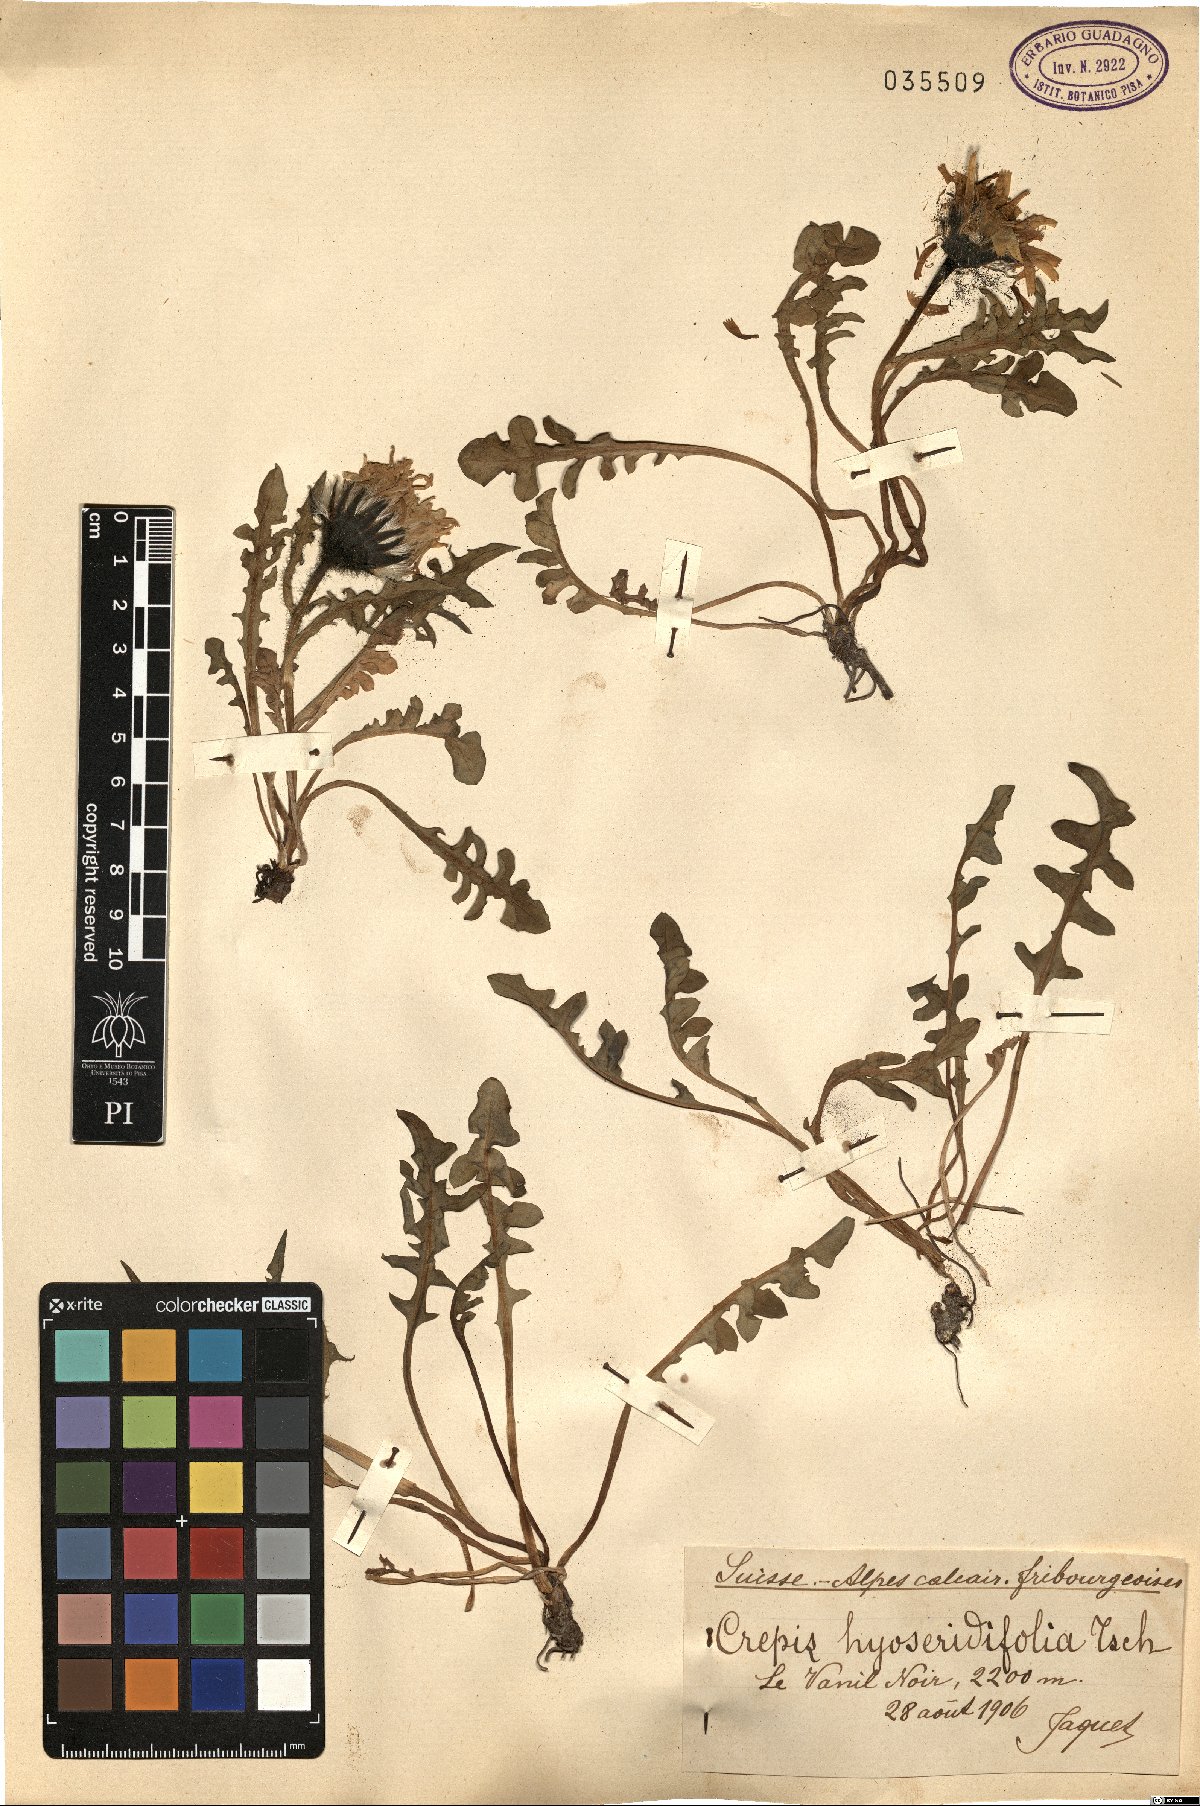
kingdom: Plantae
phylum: Tracheophyta
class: Magnoliopsida
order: Asterales
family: Asteraceae
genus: Crepis
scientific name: Crepis terglouensis
